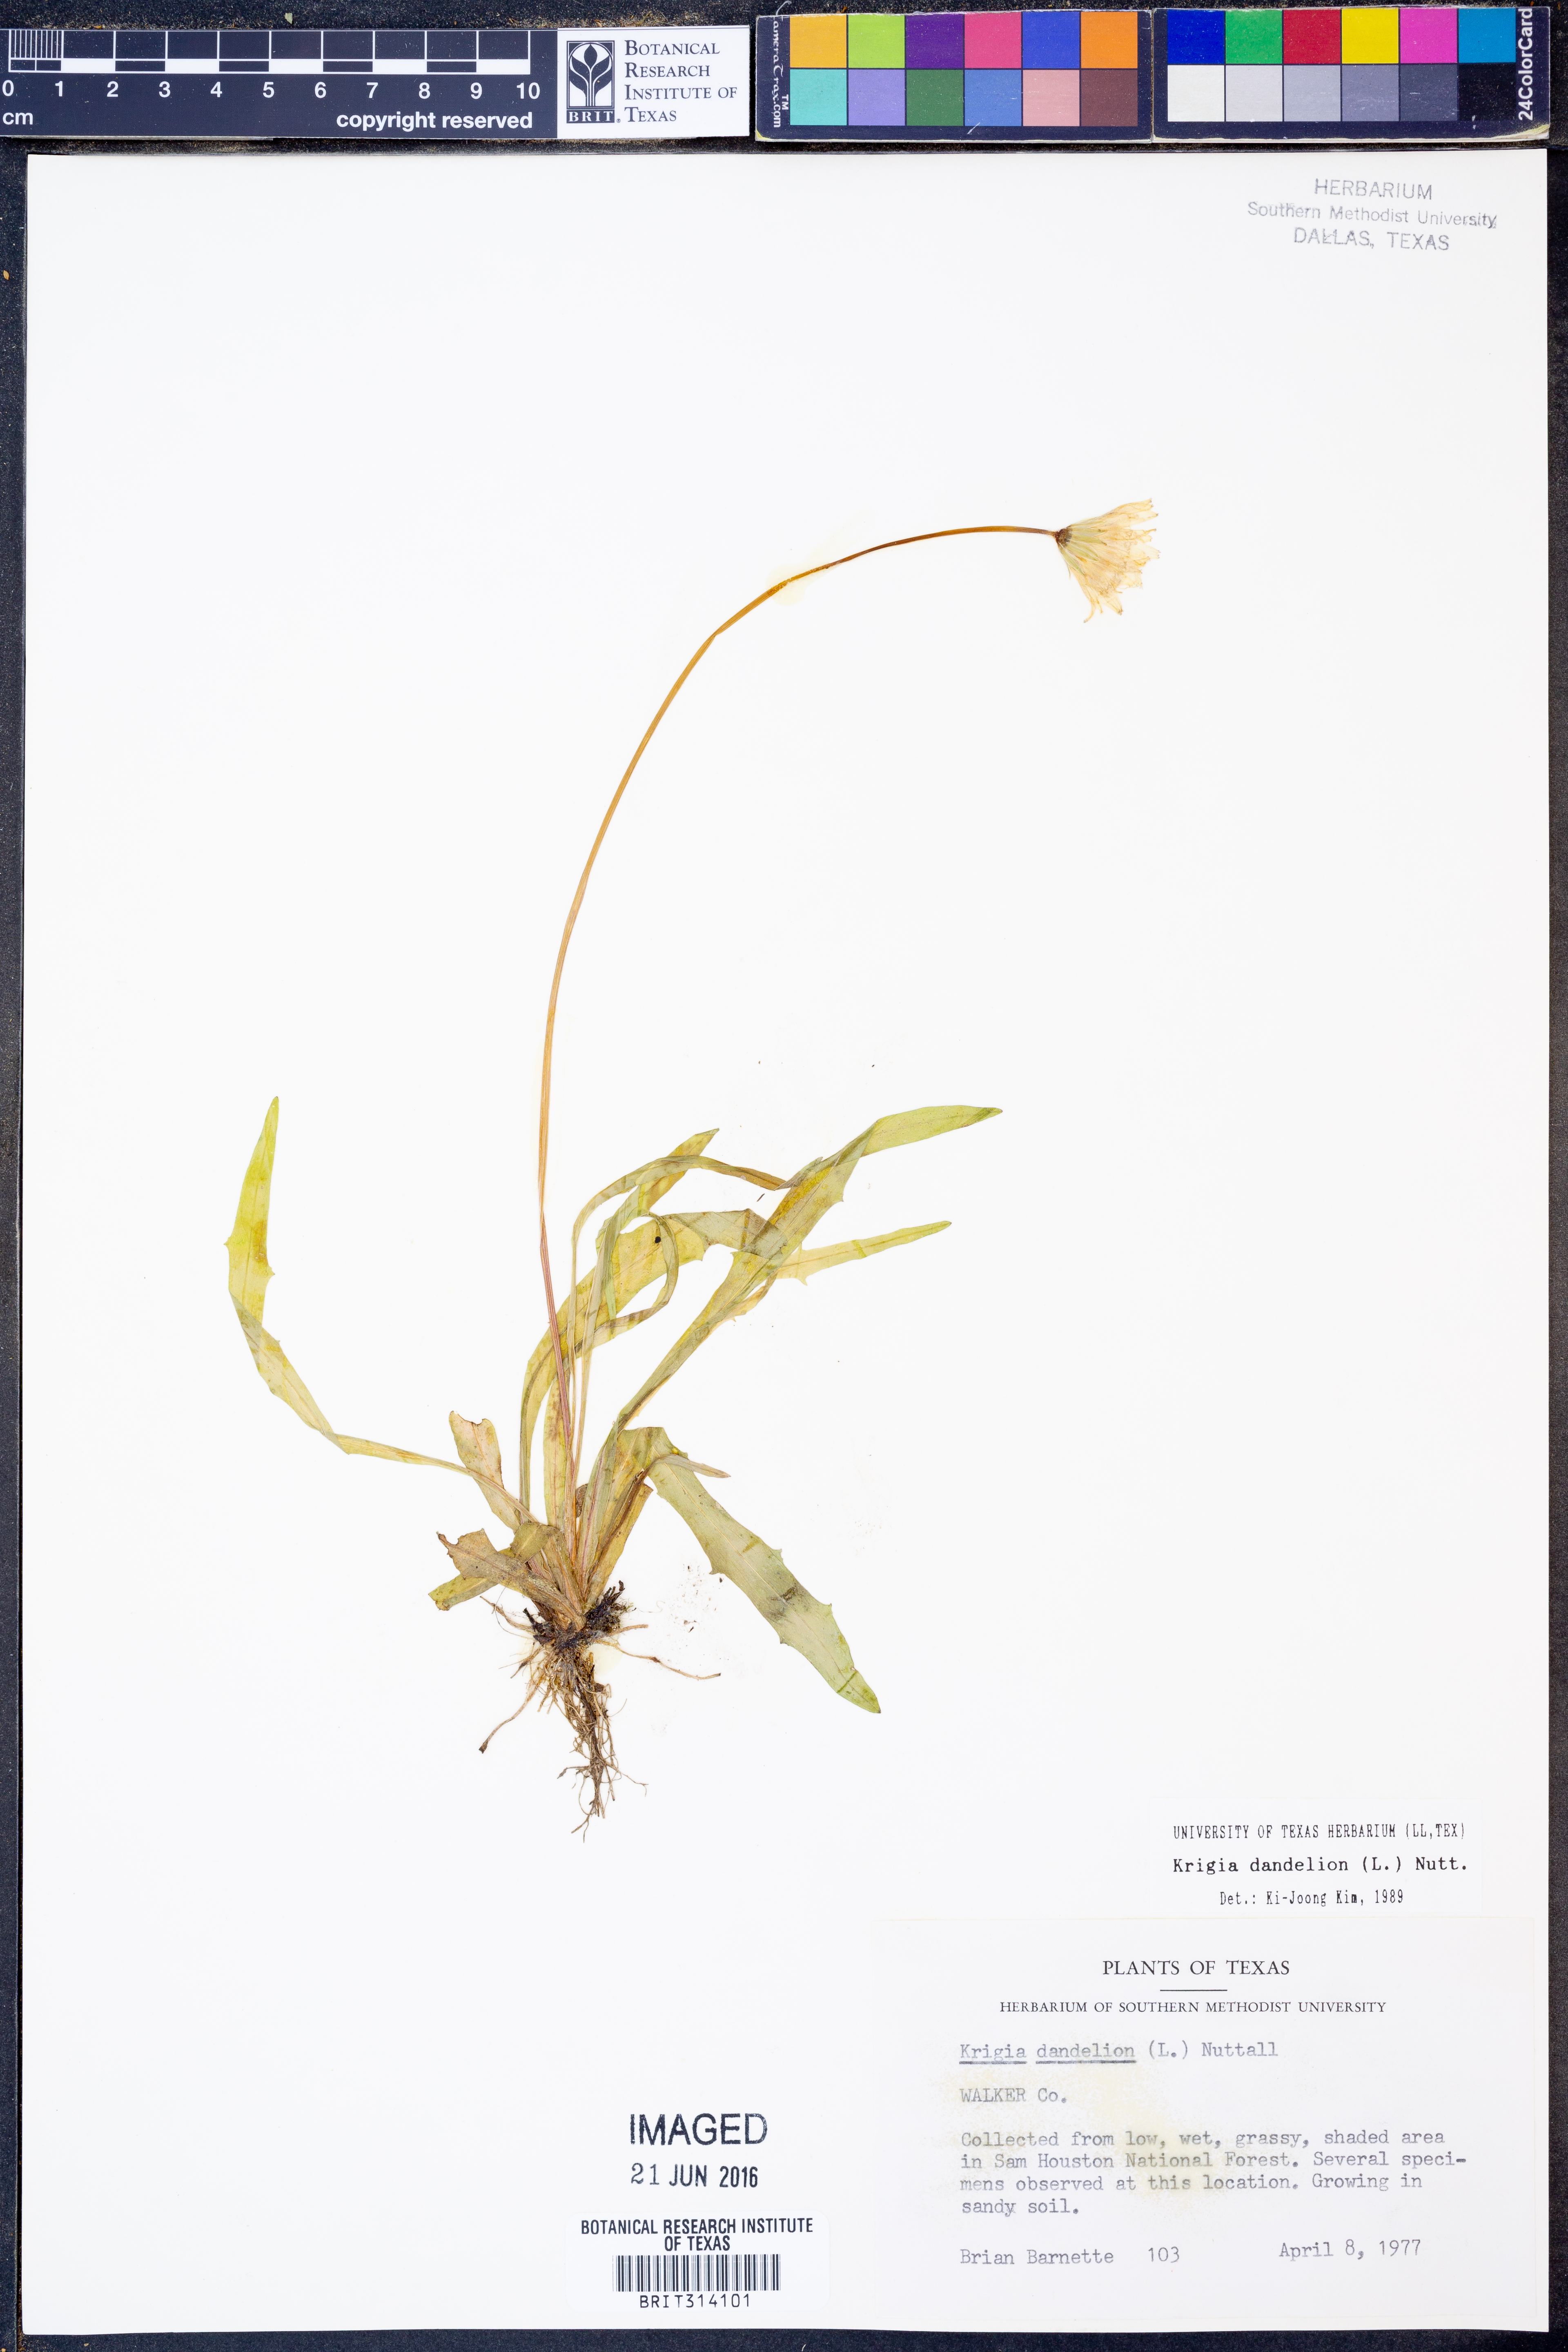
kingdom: Plantae
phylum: Tracheophyta
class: Magnoliopsida
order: Asterales
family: Asteraceae
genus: Krigia
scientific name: Krigia dandelion
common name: Colonial dwarf-dandelion
